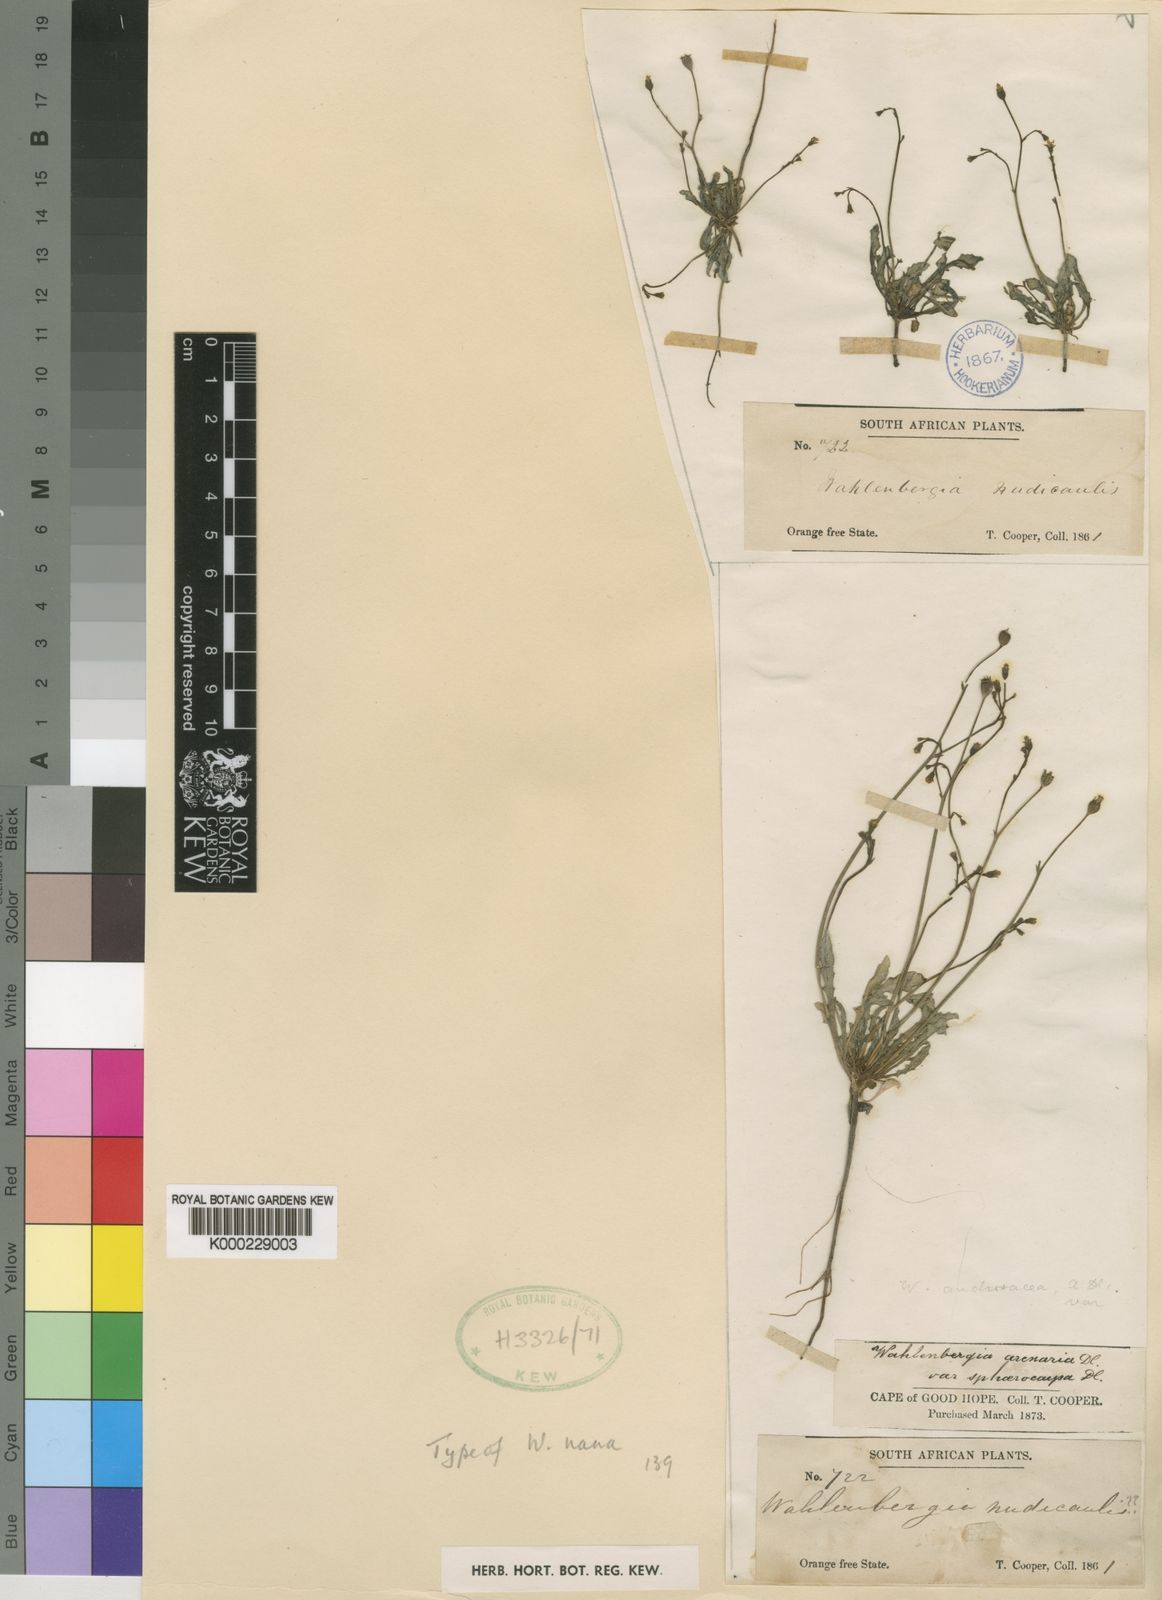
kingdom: Plantae
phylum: Tracheophyta
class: Magnoliopsida
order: Asterales
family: Campanulaceae
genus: Wahlenbergia
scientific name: Wahlenbergia nana
